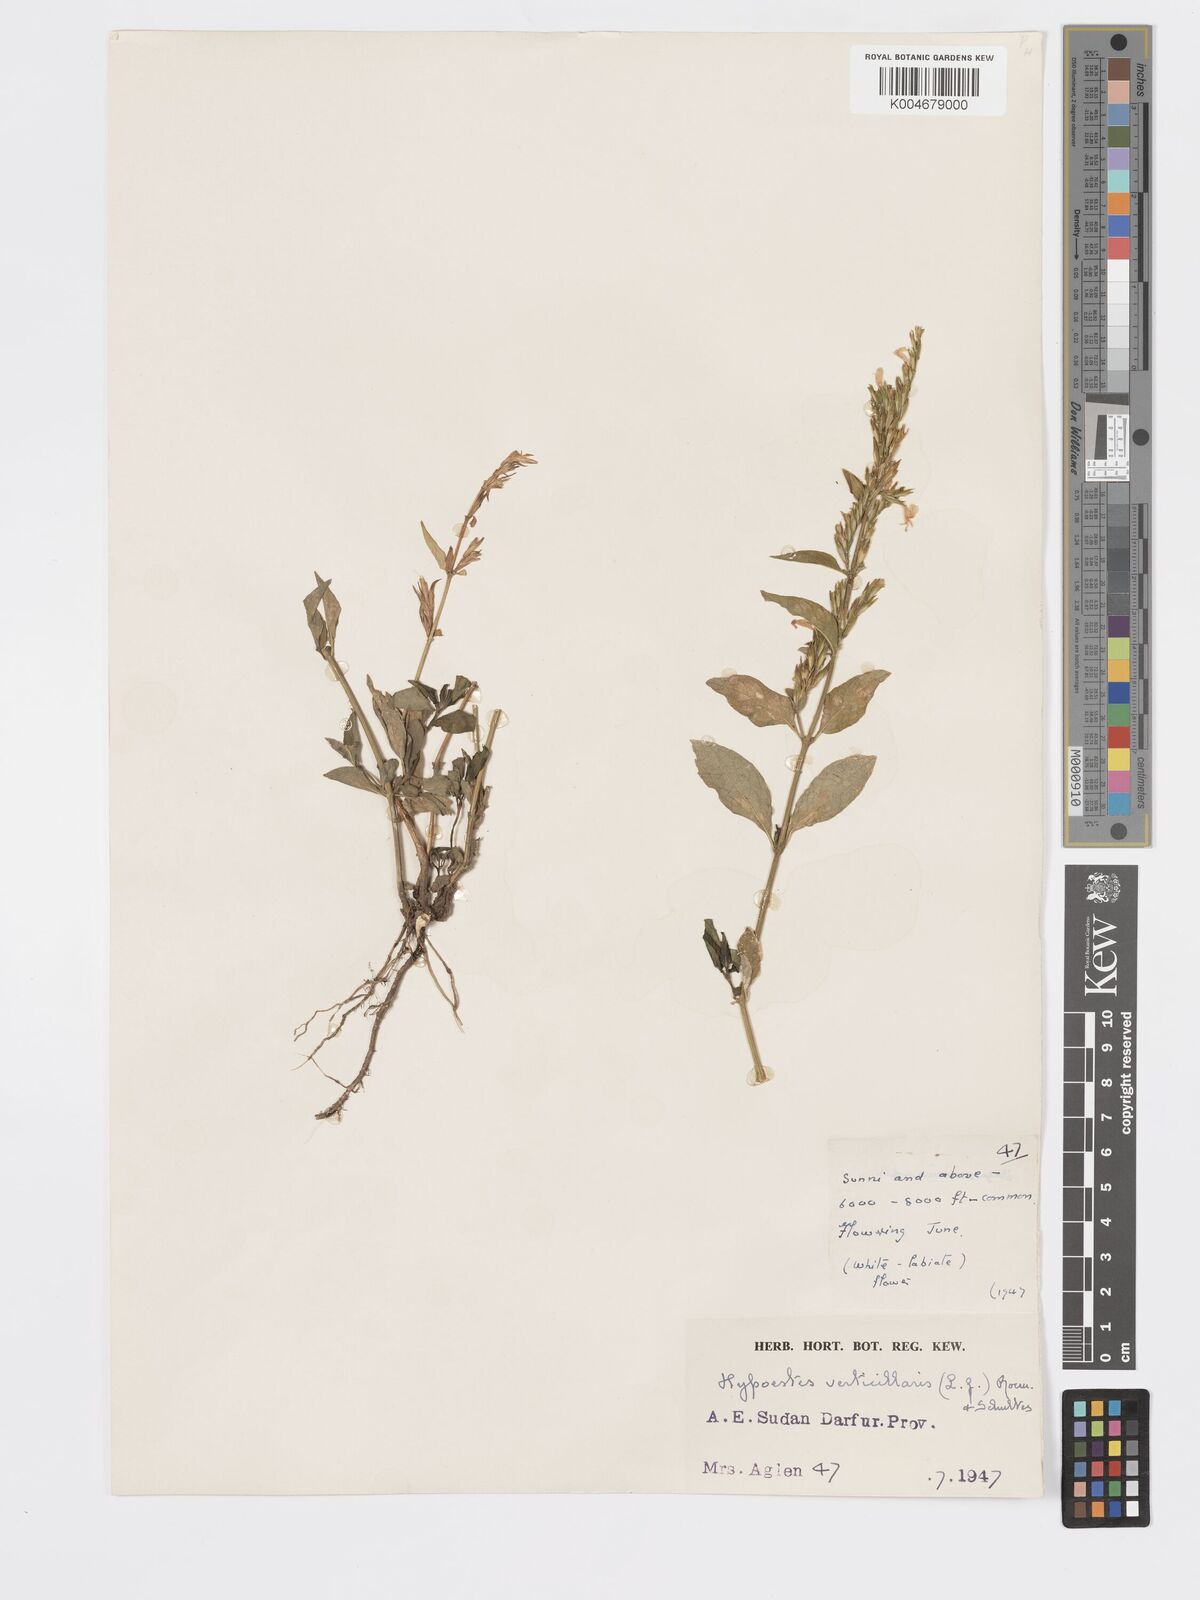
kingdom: Plantae
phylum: Tracheophyta
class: Magnoliopsida
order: Lamiales
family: Acanthaceae
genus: Hypoestes
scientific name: Hypoestes forskaolii
